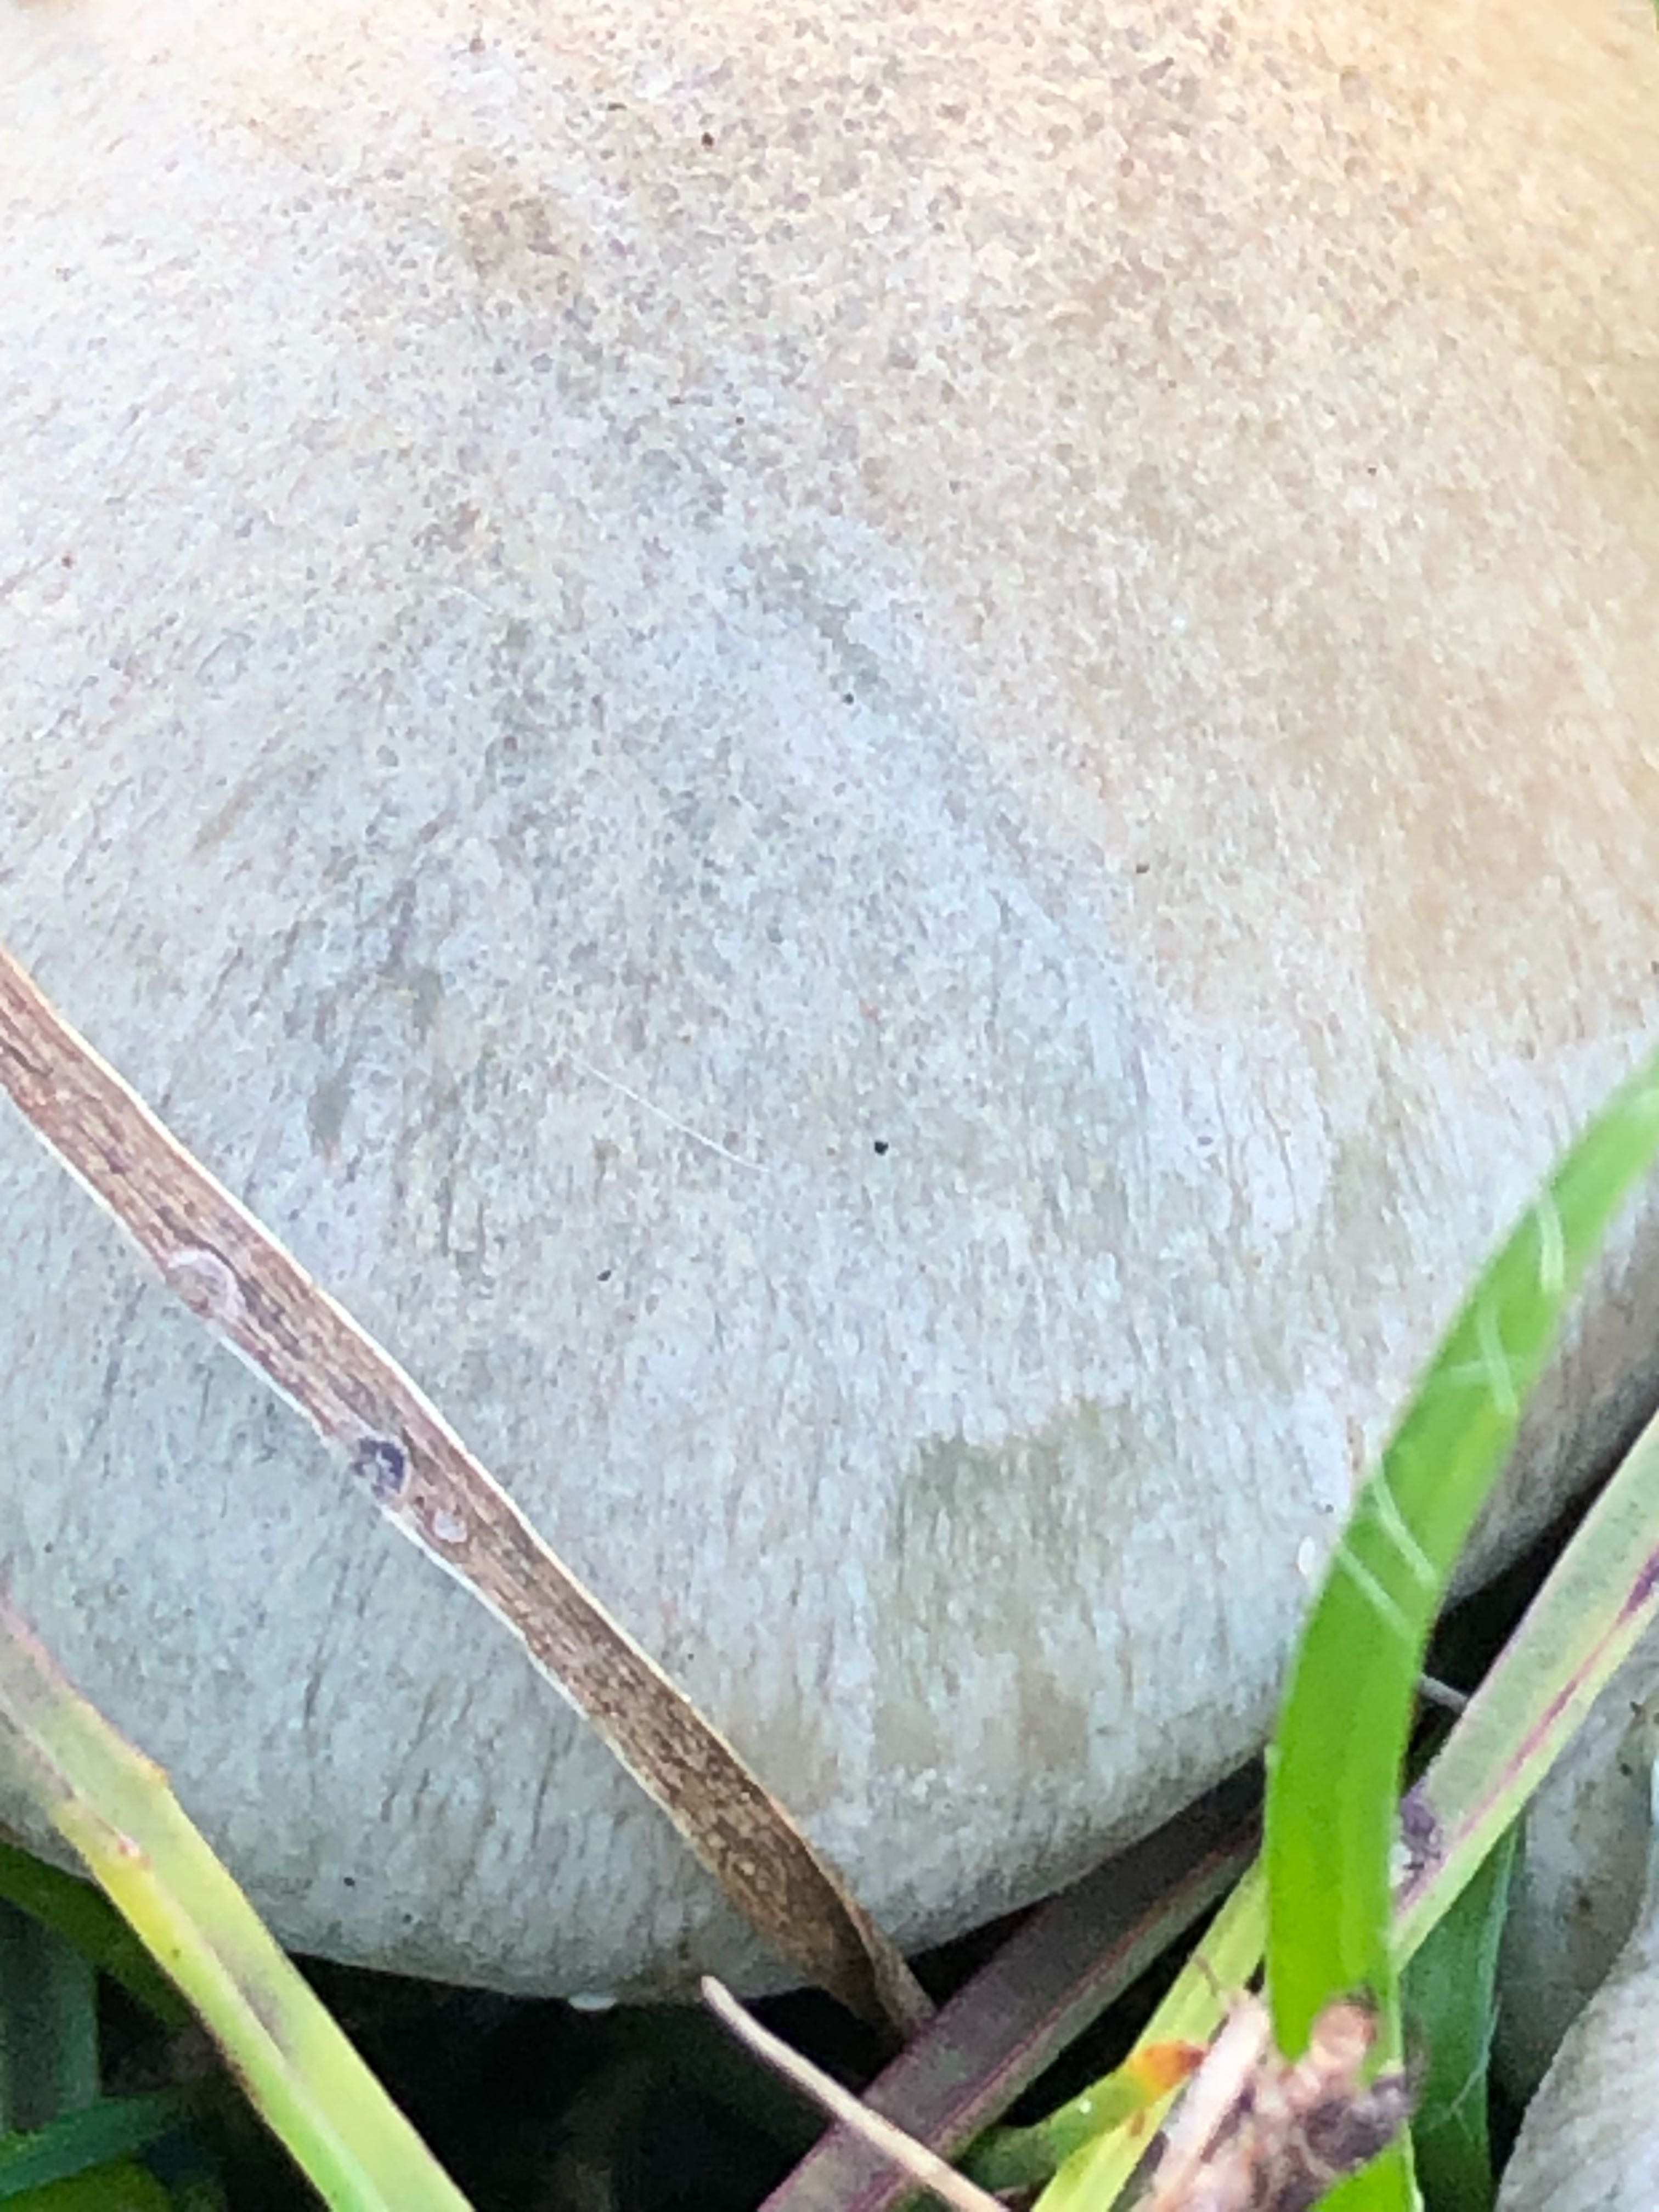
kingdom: Fungi
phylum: Basidiomycota
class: Agaricomycetes
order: Agaricales
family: Tricholomataceae
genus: Clitocybe
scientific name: Clitocybe odora
